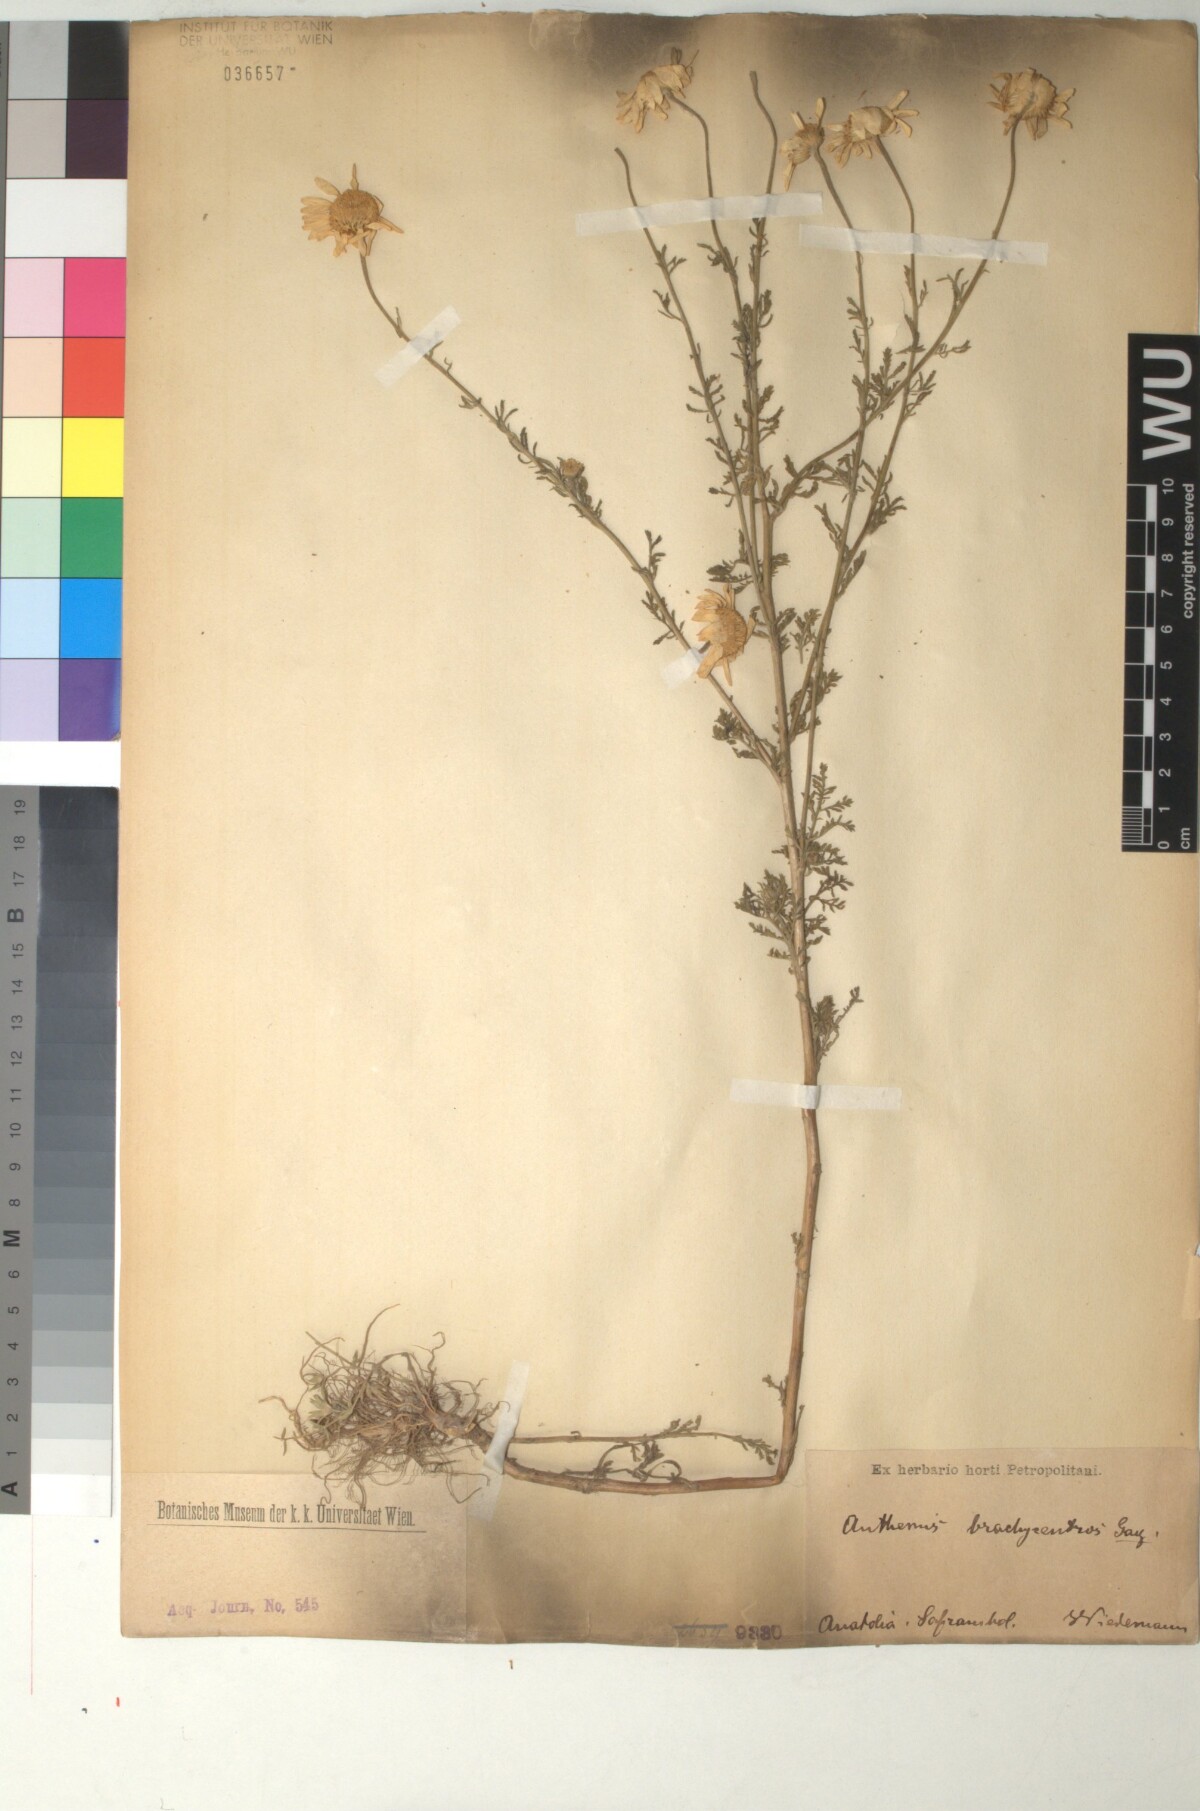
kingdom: Plantae
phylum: Tracheophyta
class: Magnoliopsida
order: Asterales
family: Asteraceae
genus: Cota
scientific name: Cota segetalis
